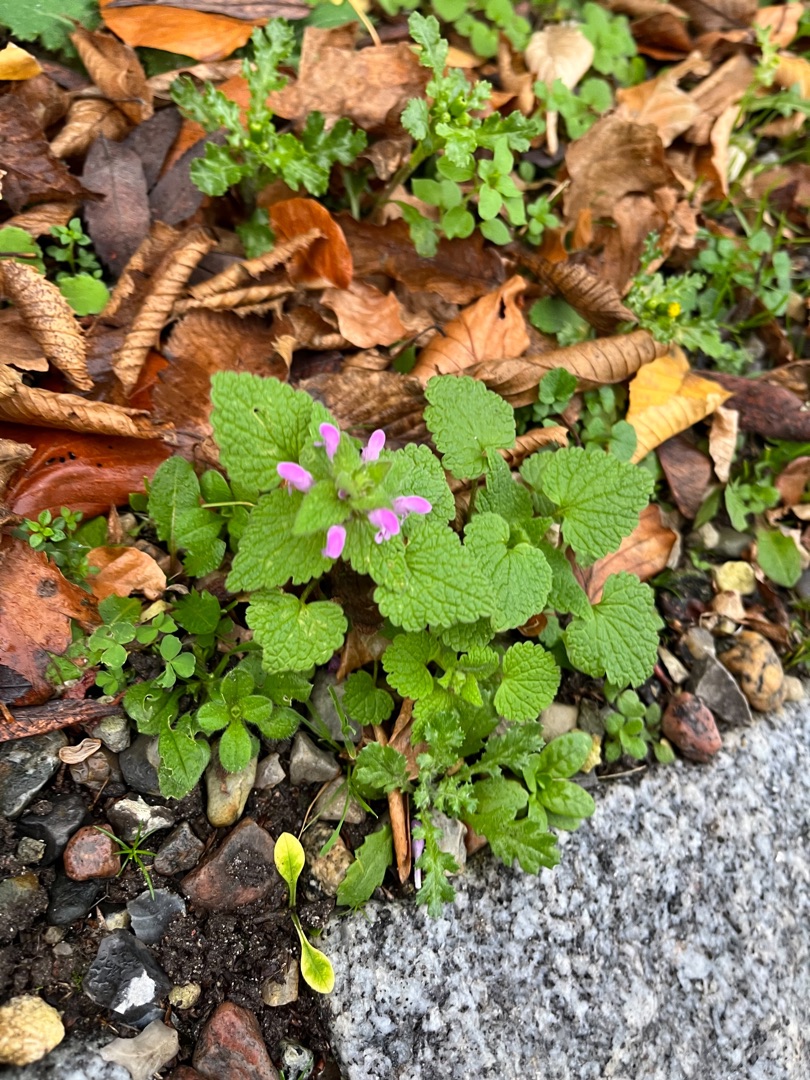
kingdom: Plantae
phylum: Tracheophyta
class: Magnoliopsida
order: Lamiales
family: Lamiaceae
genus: Lamium
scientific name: Lamium purpureum
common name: Rød tvetand
